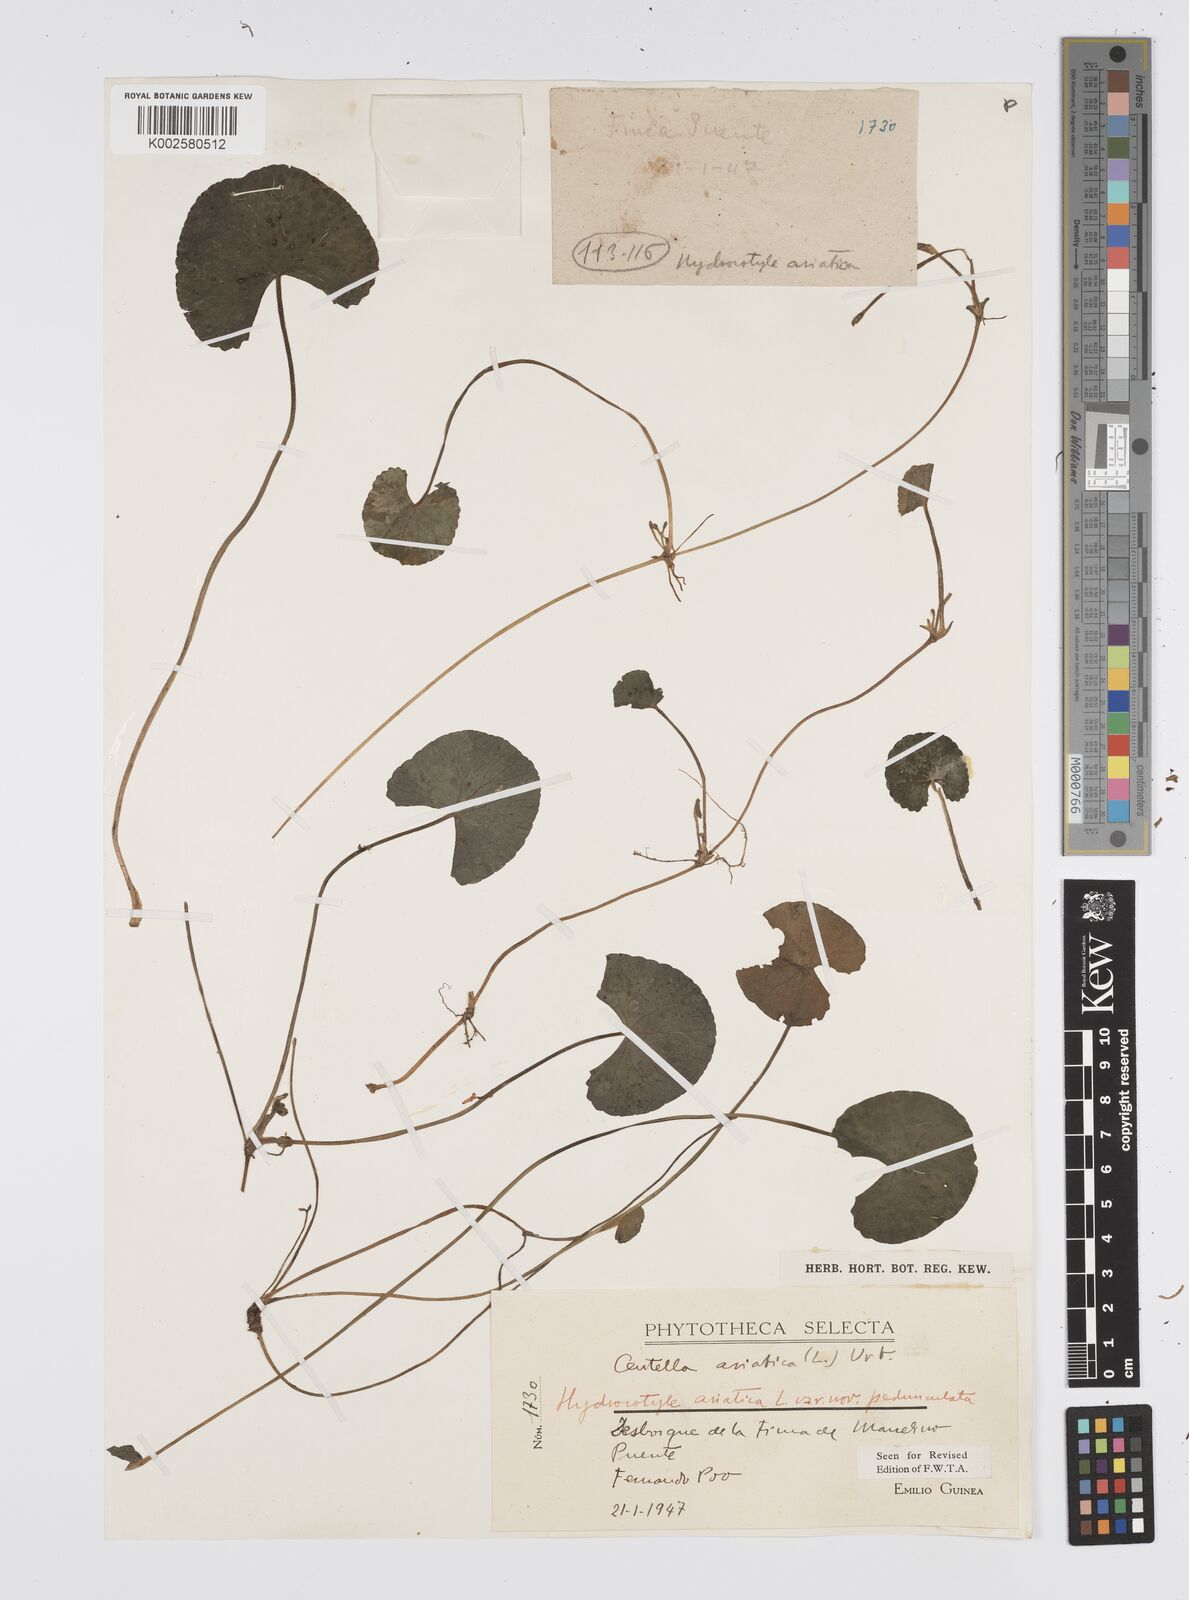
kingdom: Plantae
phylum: Tracheophyta
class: Magnoliopsida
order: Apiales
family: Apiaceae
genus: Centella
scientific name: Centella asiatica
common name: Spadeleaf
